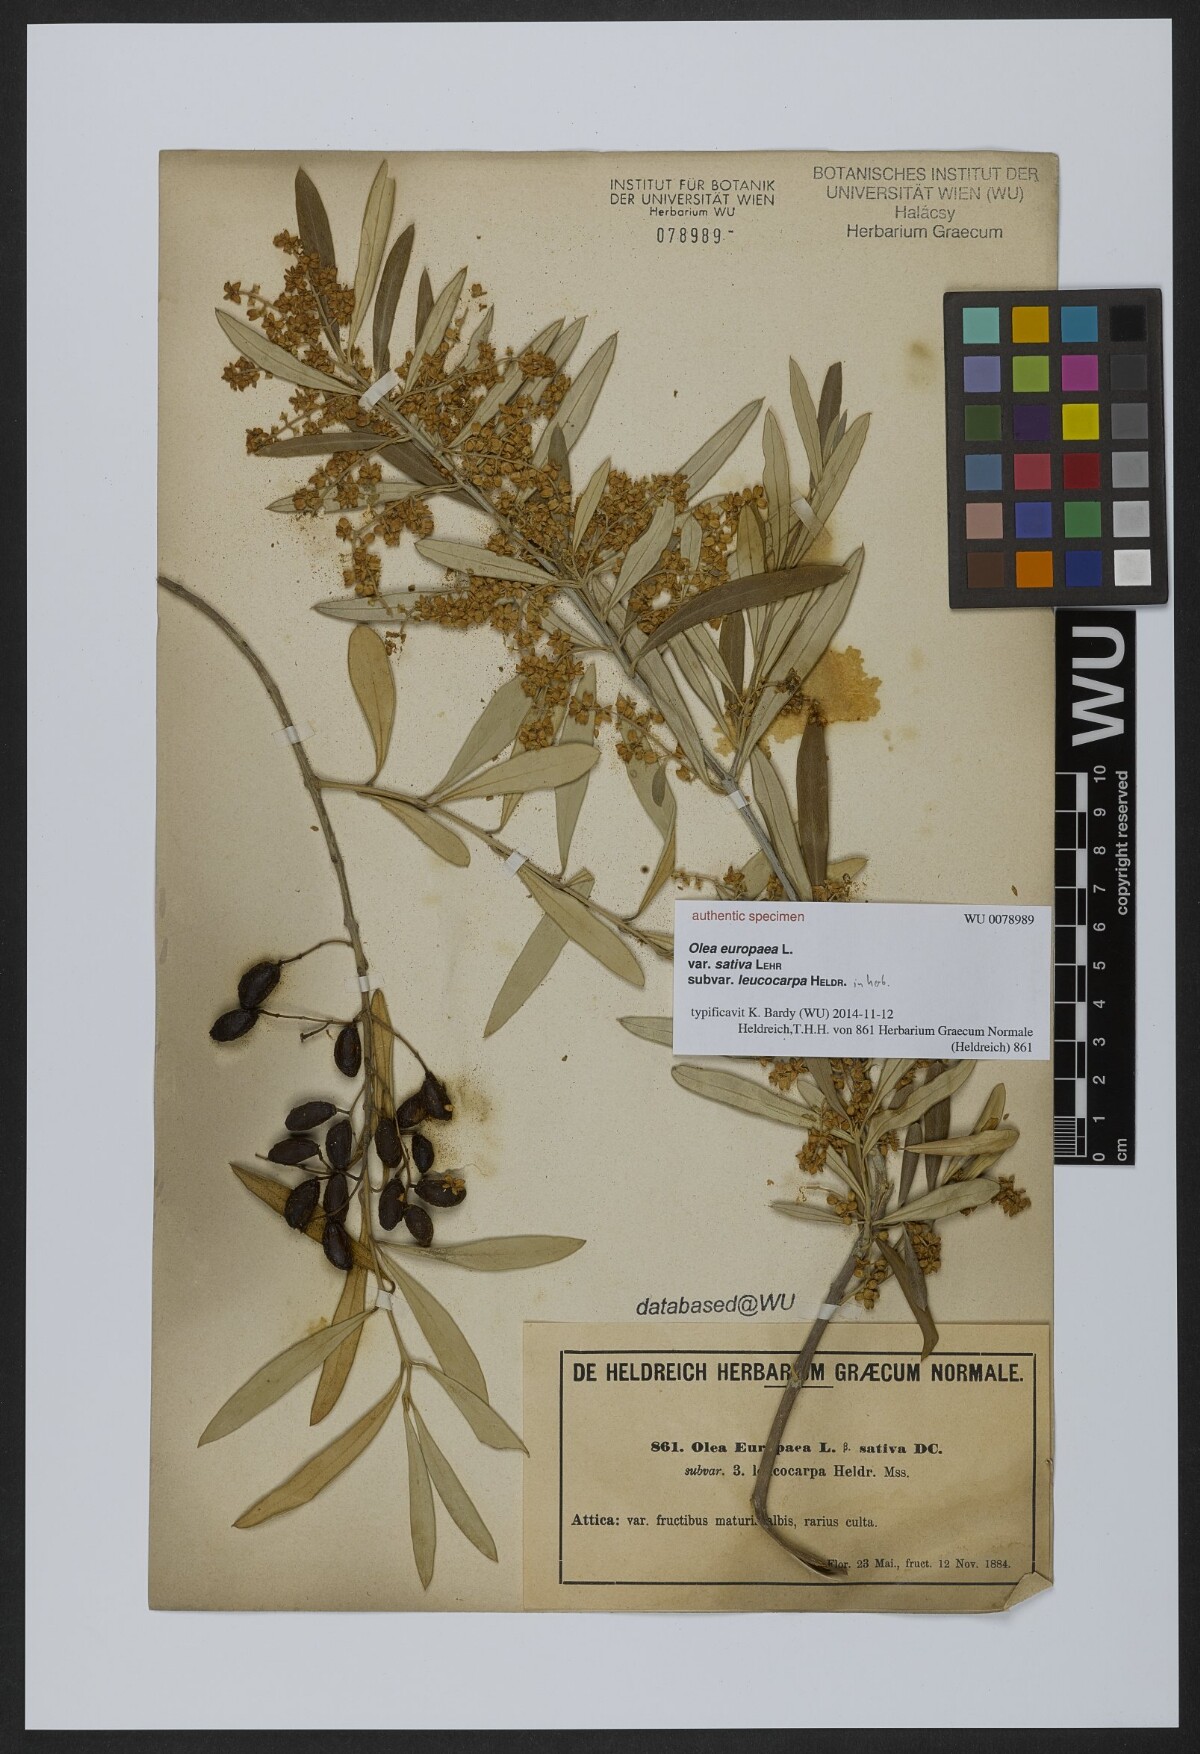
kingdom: Plantae
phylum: Tracheophyta
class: Magnoliopsida
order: Lamiales
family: Oleaceae
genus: Olea
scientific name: Olea europaea
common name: Olive
